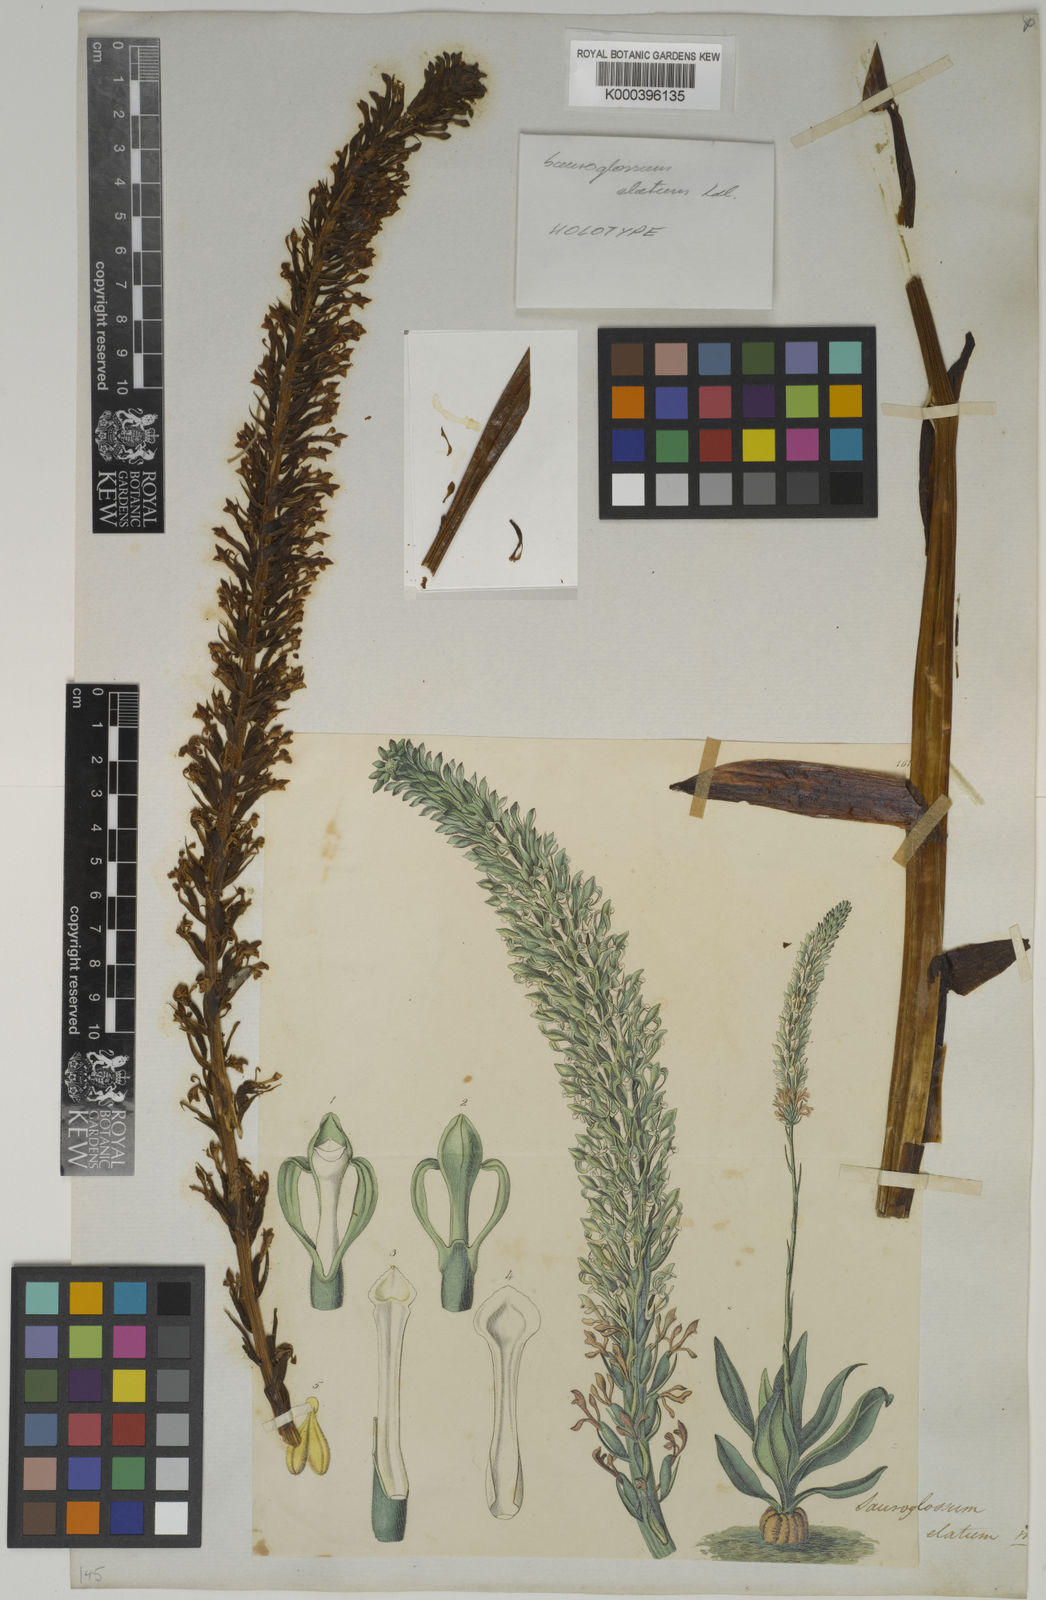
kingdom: Plantae
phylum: Tracheophyta
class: Liliopsida
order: Asparagales
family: Orchidaceae
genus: Sauroglossum
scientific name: Sauroglossum elatum
